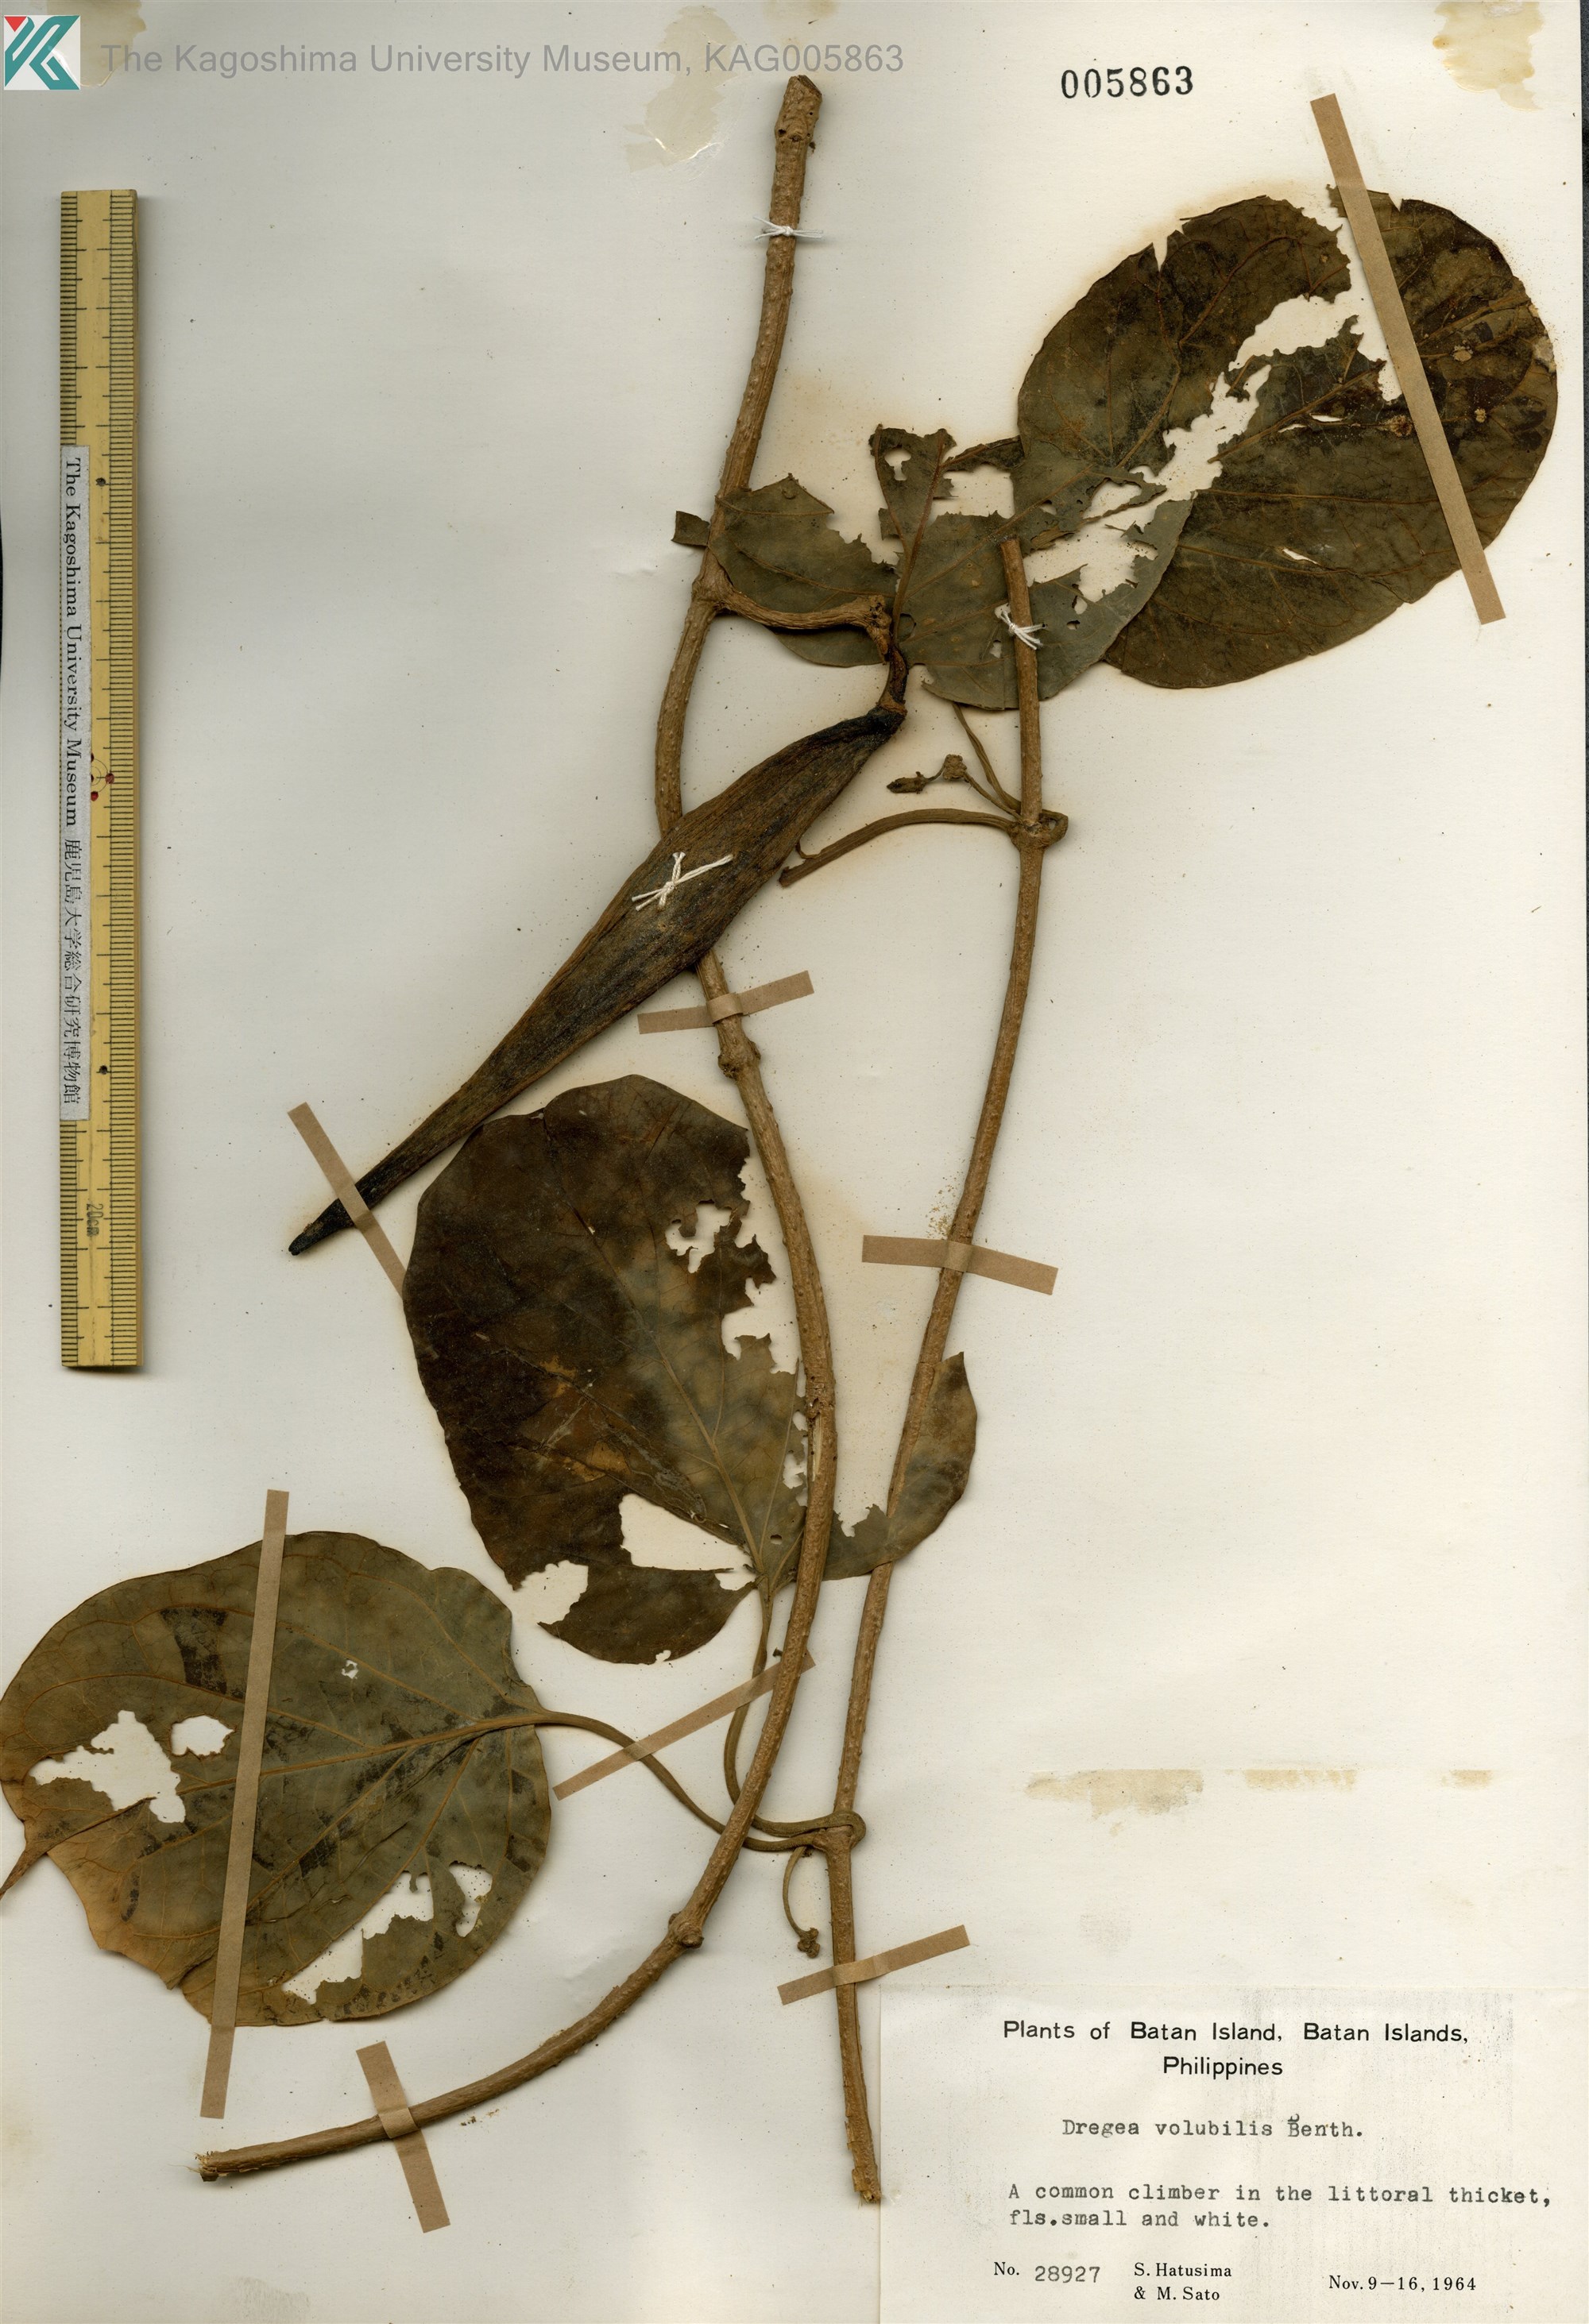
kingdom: Plantae
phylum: Tracheophyta
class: Magnoliopsida
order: Gentianales
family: Apocynaceae
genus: Stephanotis
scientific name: Stephanotis volubilis
